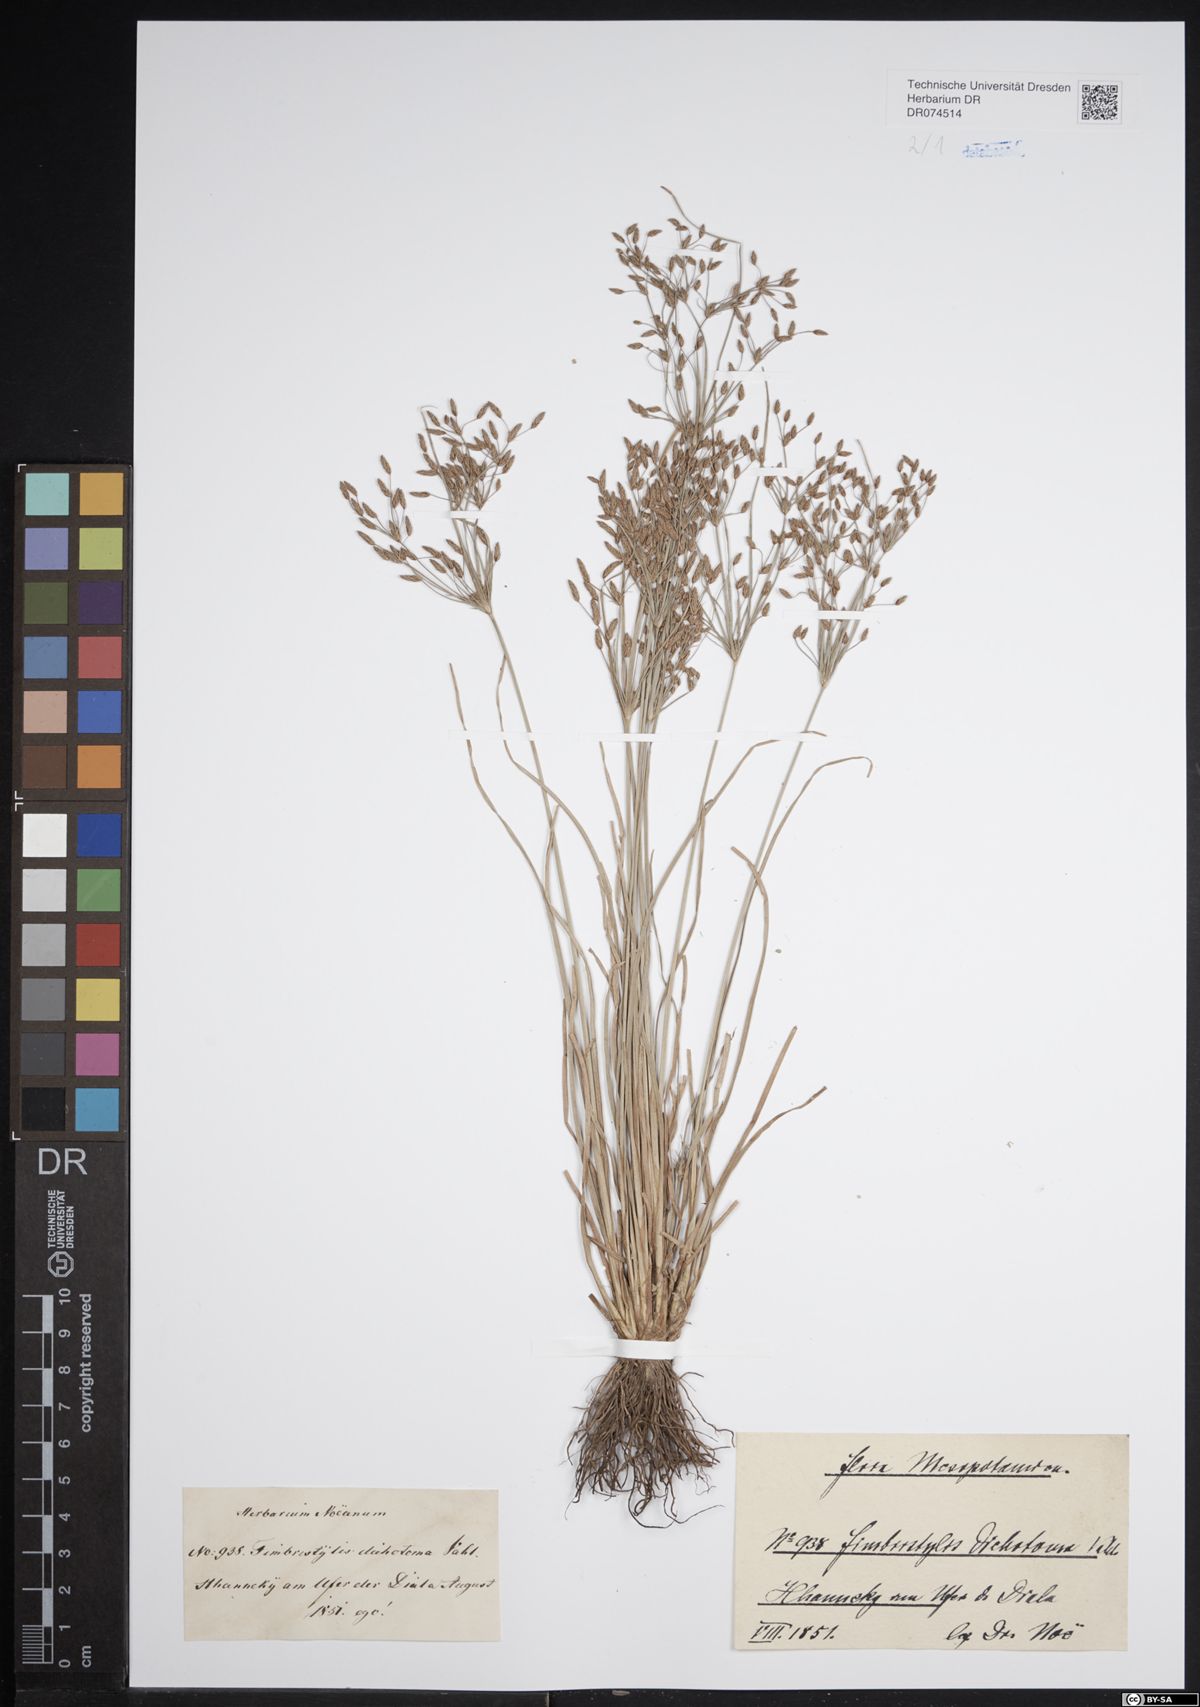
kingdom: Plantae
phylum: Tracheophyta
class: Liliopsida
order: Poales
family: Cyperaceae
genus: Fimbristylis
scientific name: Fimbristylis dichotoma
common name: Forked fimbry
